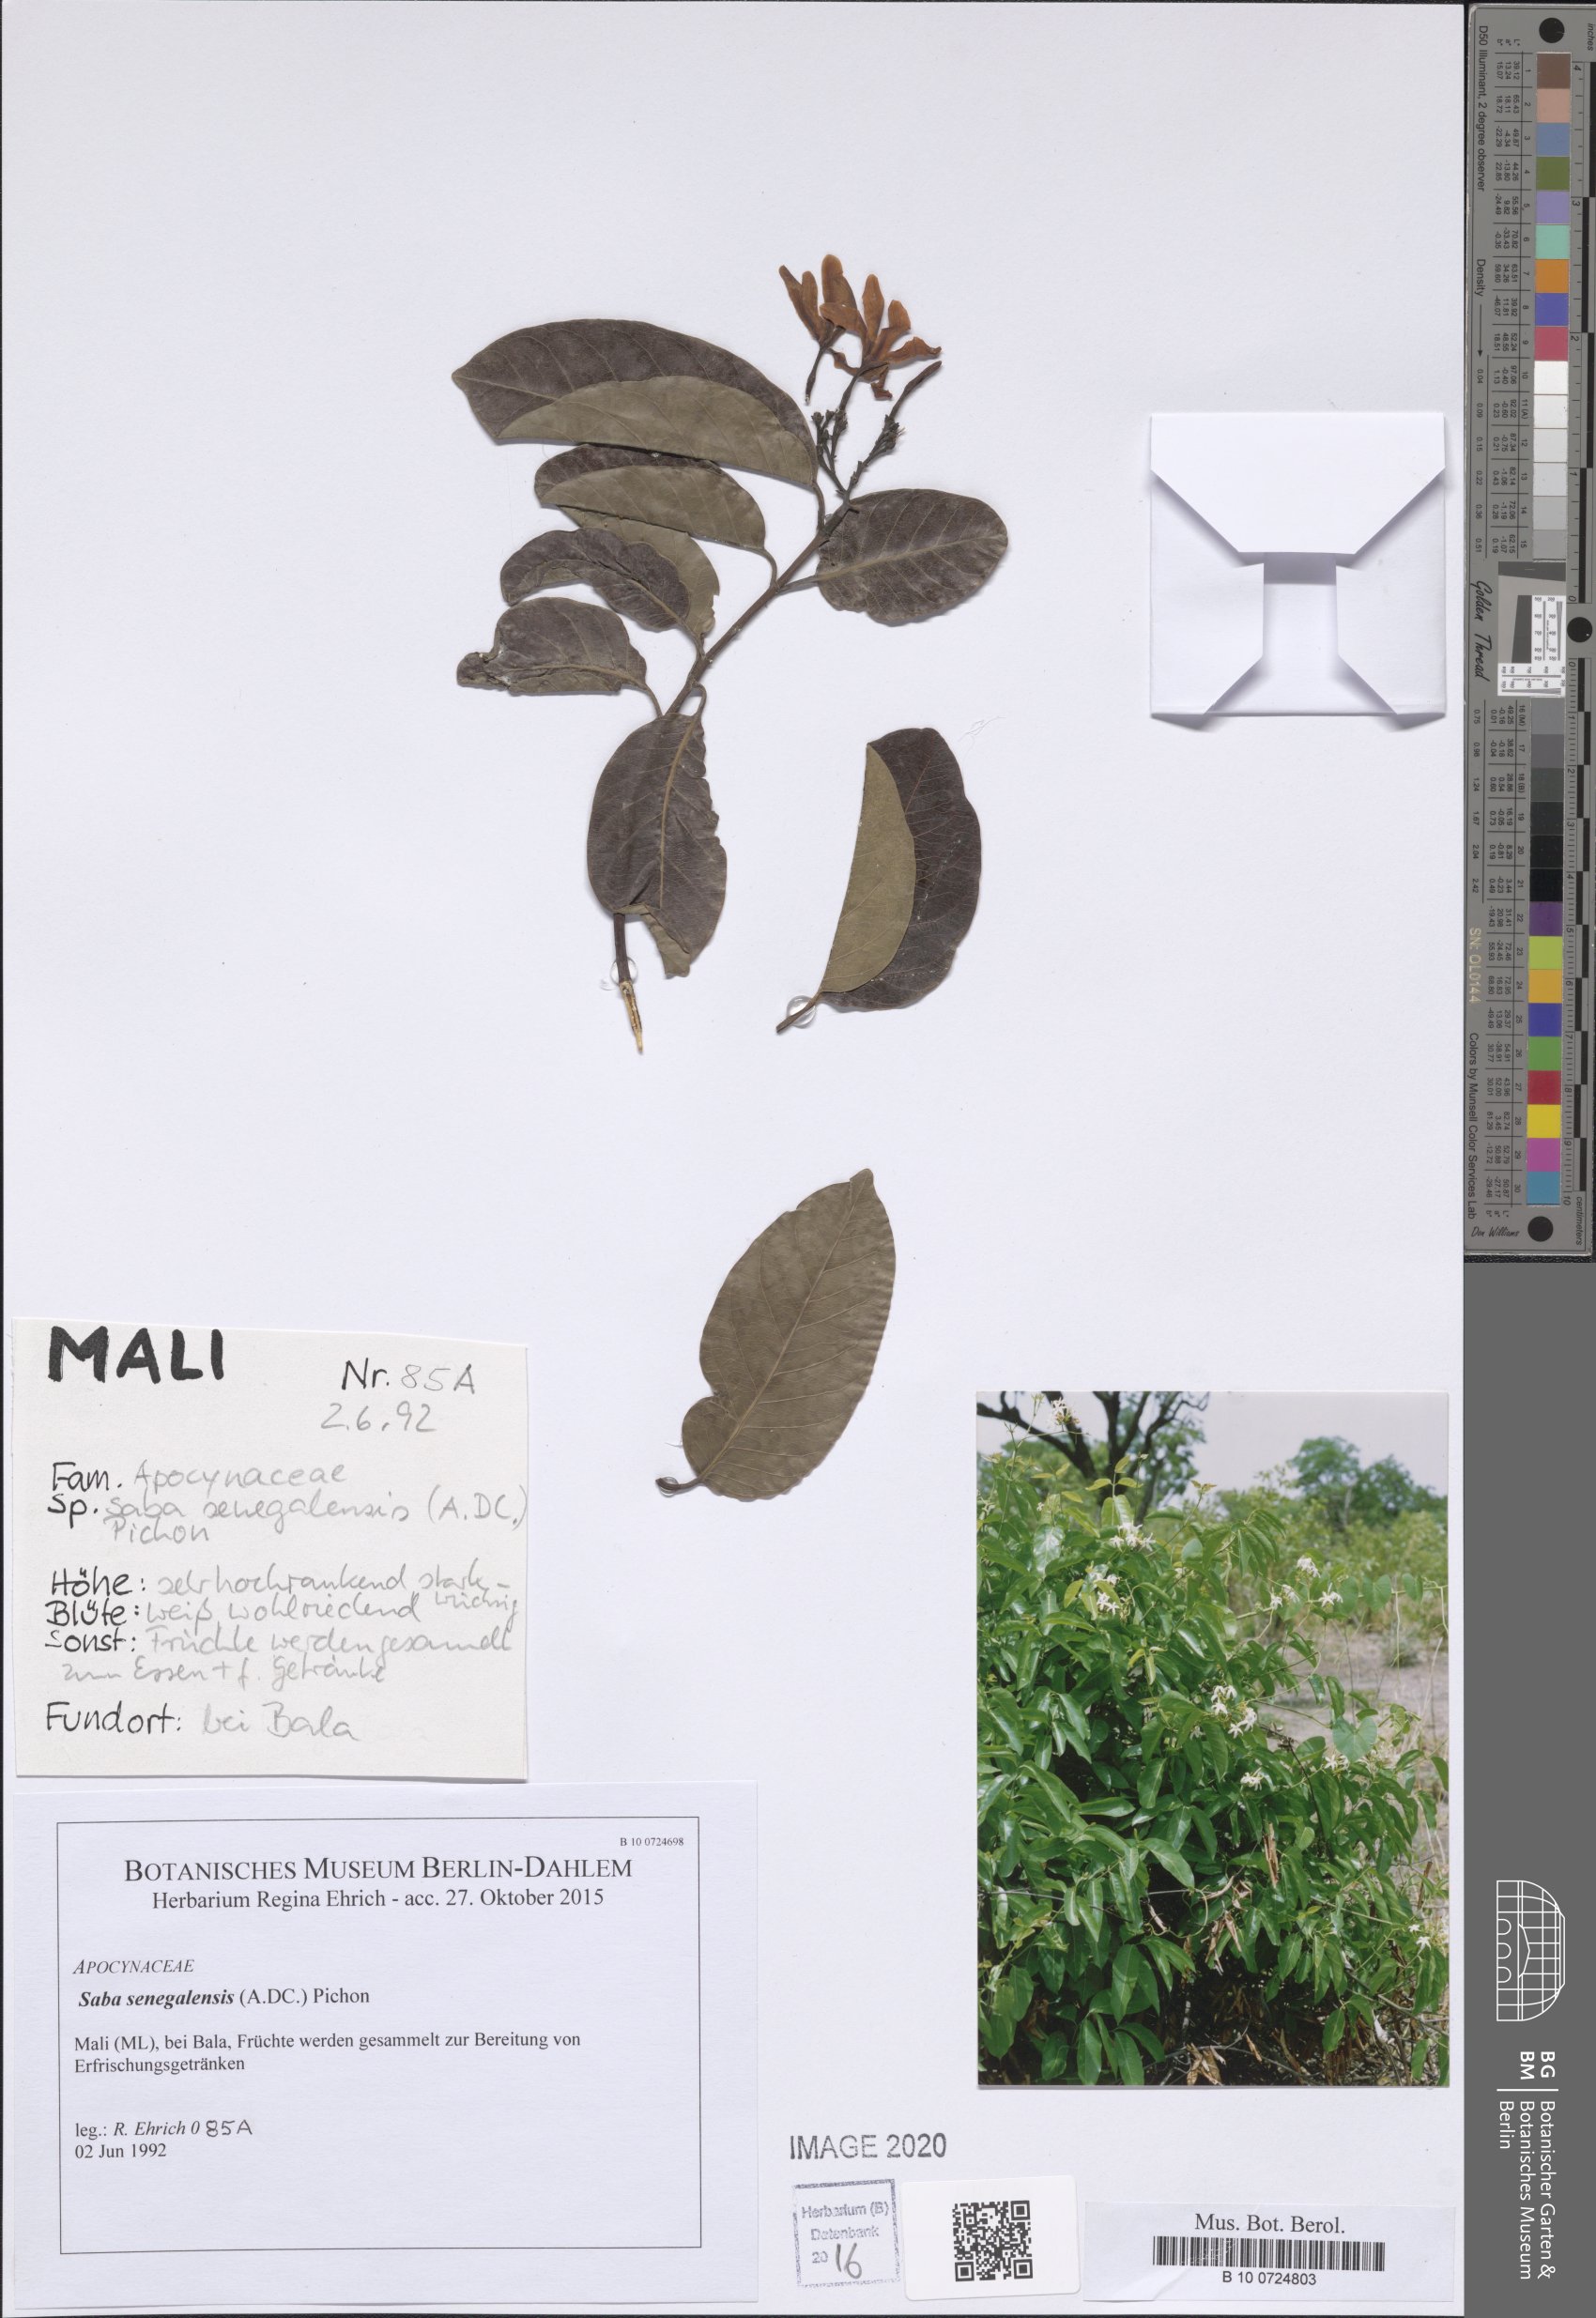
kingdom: Plantae
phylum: Tracheophyta
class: Magnoliopsida
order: Nymphaeales
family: Nymphaeaceae
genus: Nymphaea
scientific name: Nymphaea lotus
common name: White egyptian lotus
